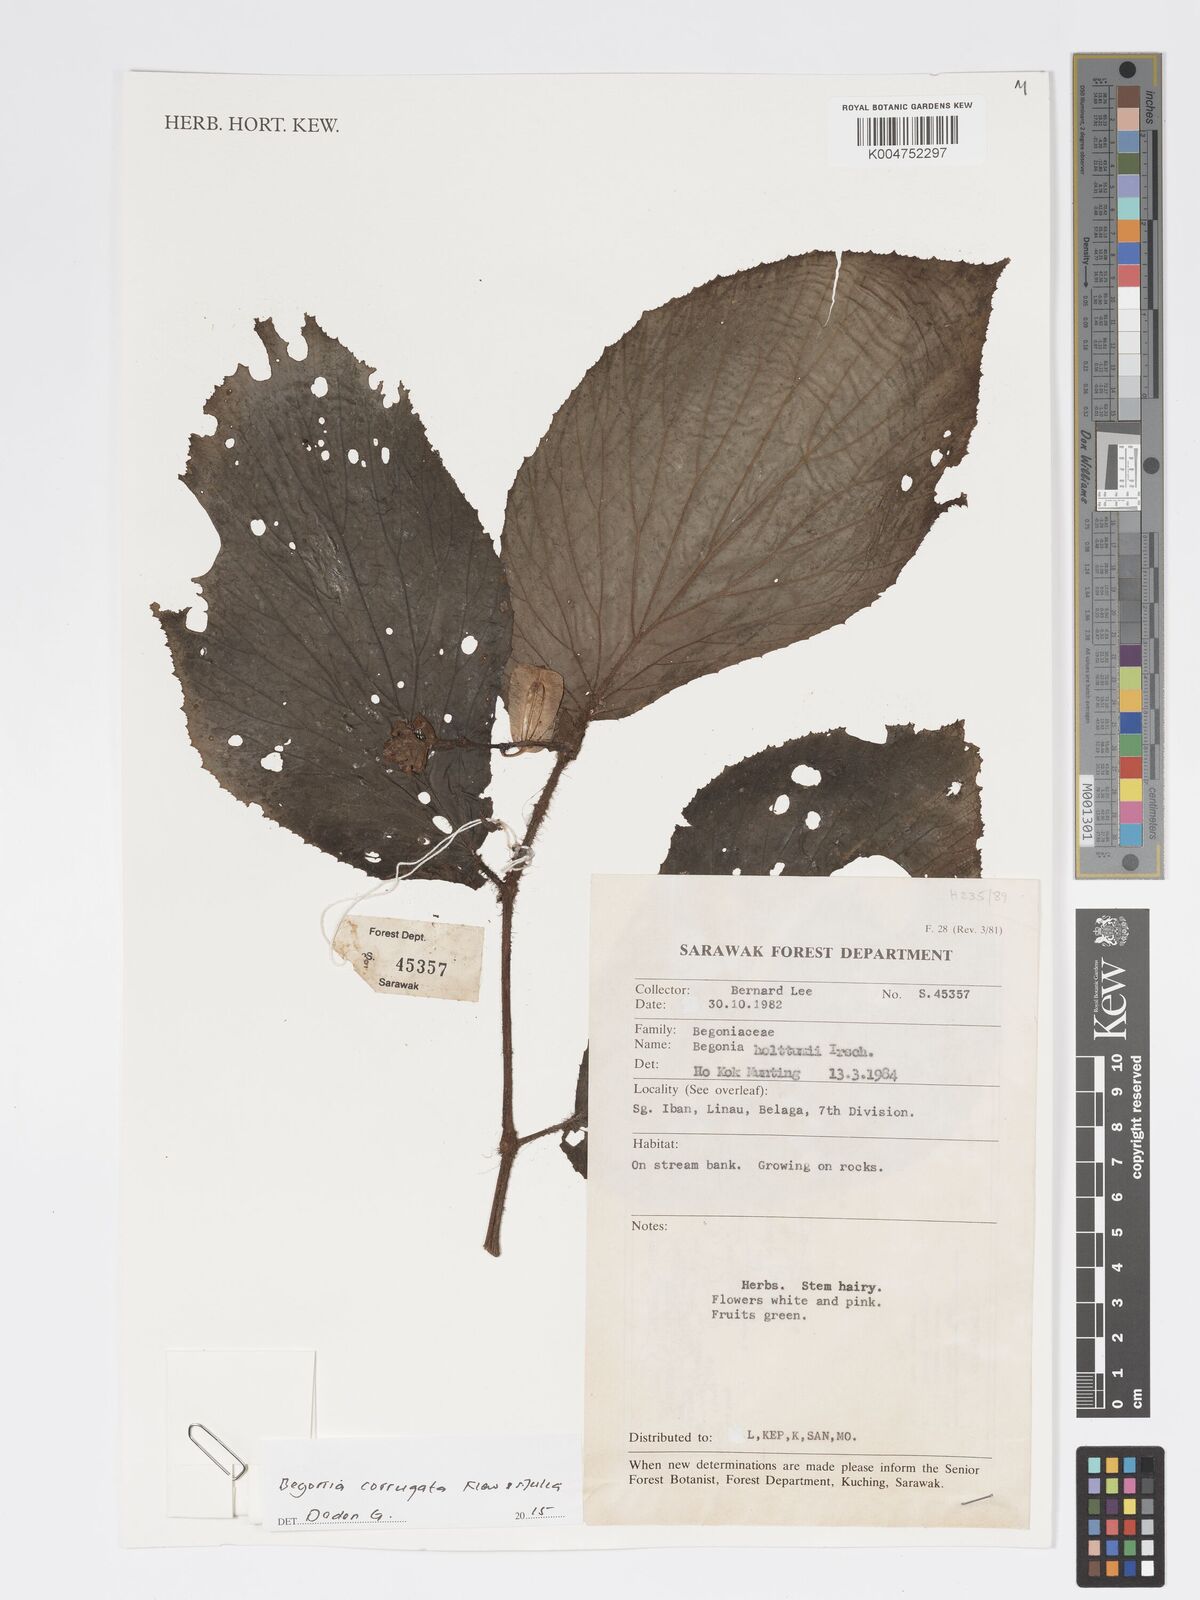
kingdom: Plantae
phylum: Tracheophyta
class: Magnoliopsida
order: Cucurbitales
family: Begoniaceae
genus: Begonia
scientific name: Begonia corrugata
